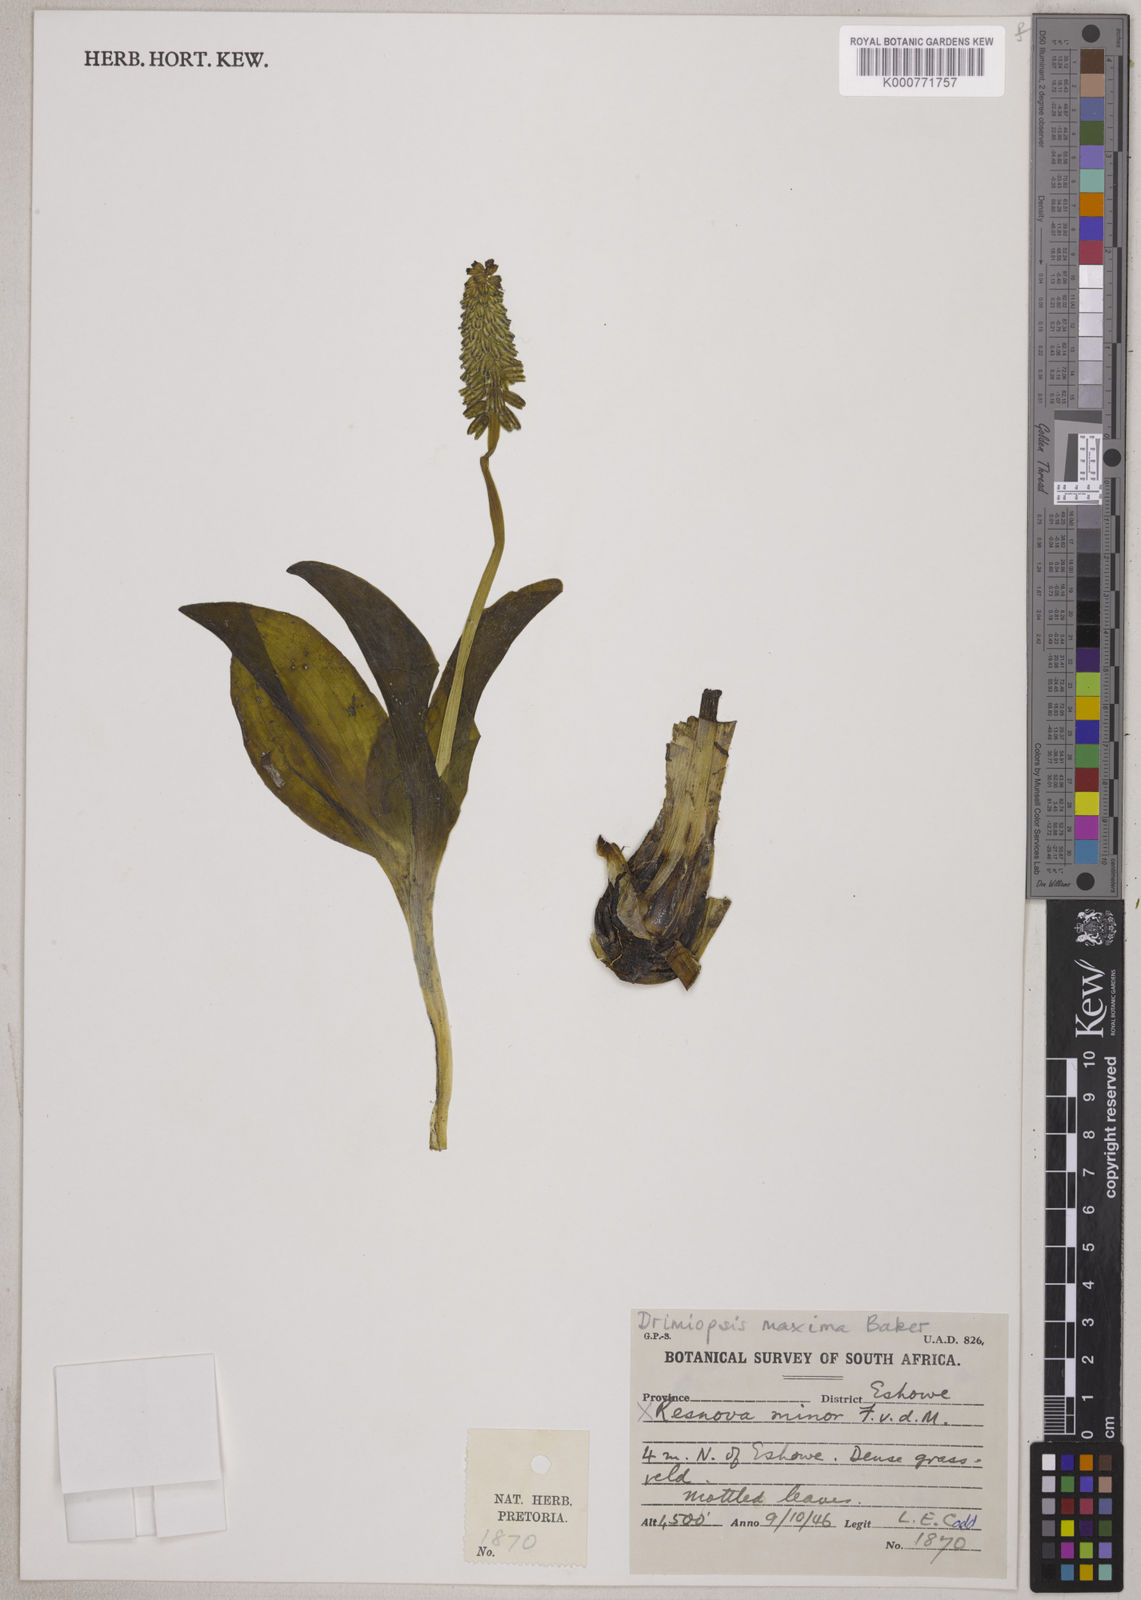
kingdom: Plantae
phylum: Tracheophyta
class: Liliopsida
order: Asparagales
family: Asparagaceae
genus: Resnova
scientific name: Resnova humifusa
